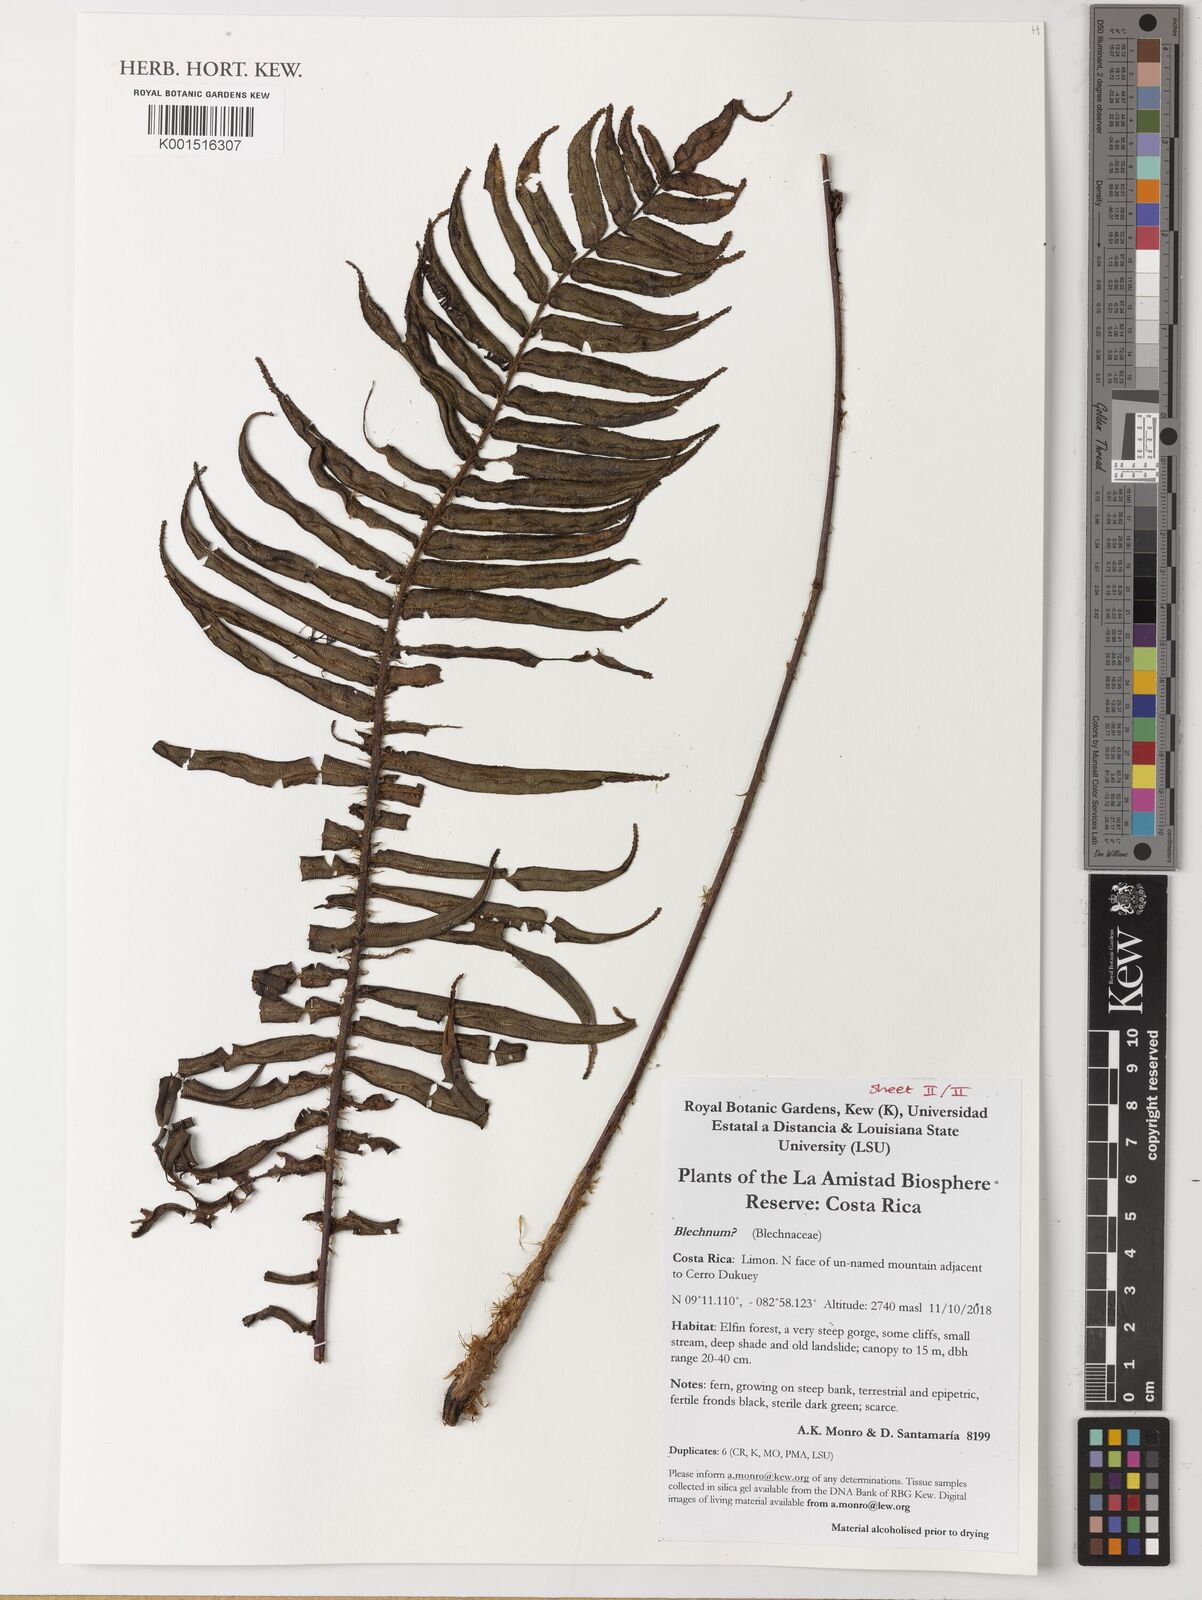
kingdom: Plantae
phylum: Tracheophyta
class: Polypodiopsida
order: Polypodiales
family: Blechnaceae
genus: Blechnum
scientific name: Blechnum
